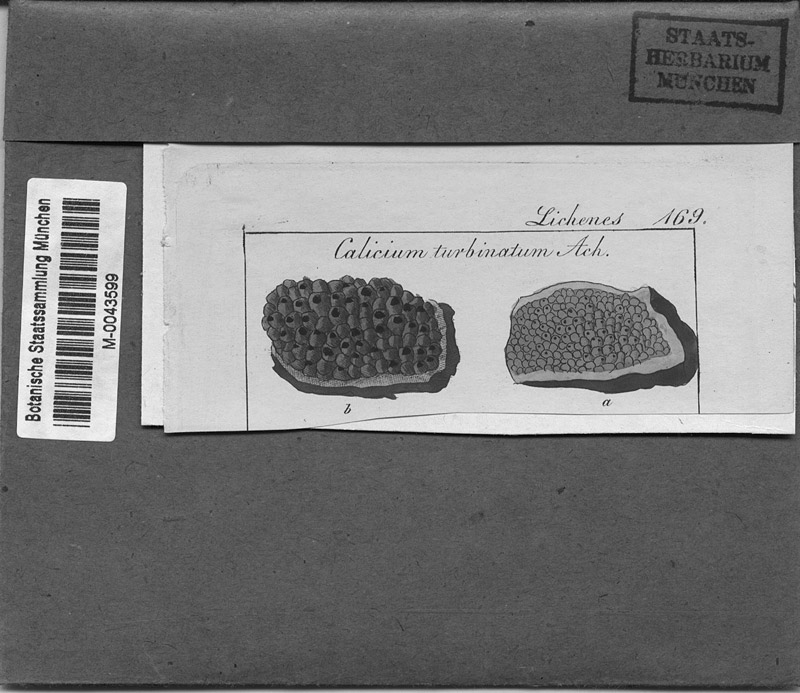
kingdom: Fungi
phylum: Ascomycota
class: Eurotiomycetes
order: Mycocaliciales
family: Sphinctrinaceae
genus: Sphinctrina
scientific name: Sphinctrina turbinata
